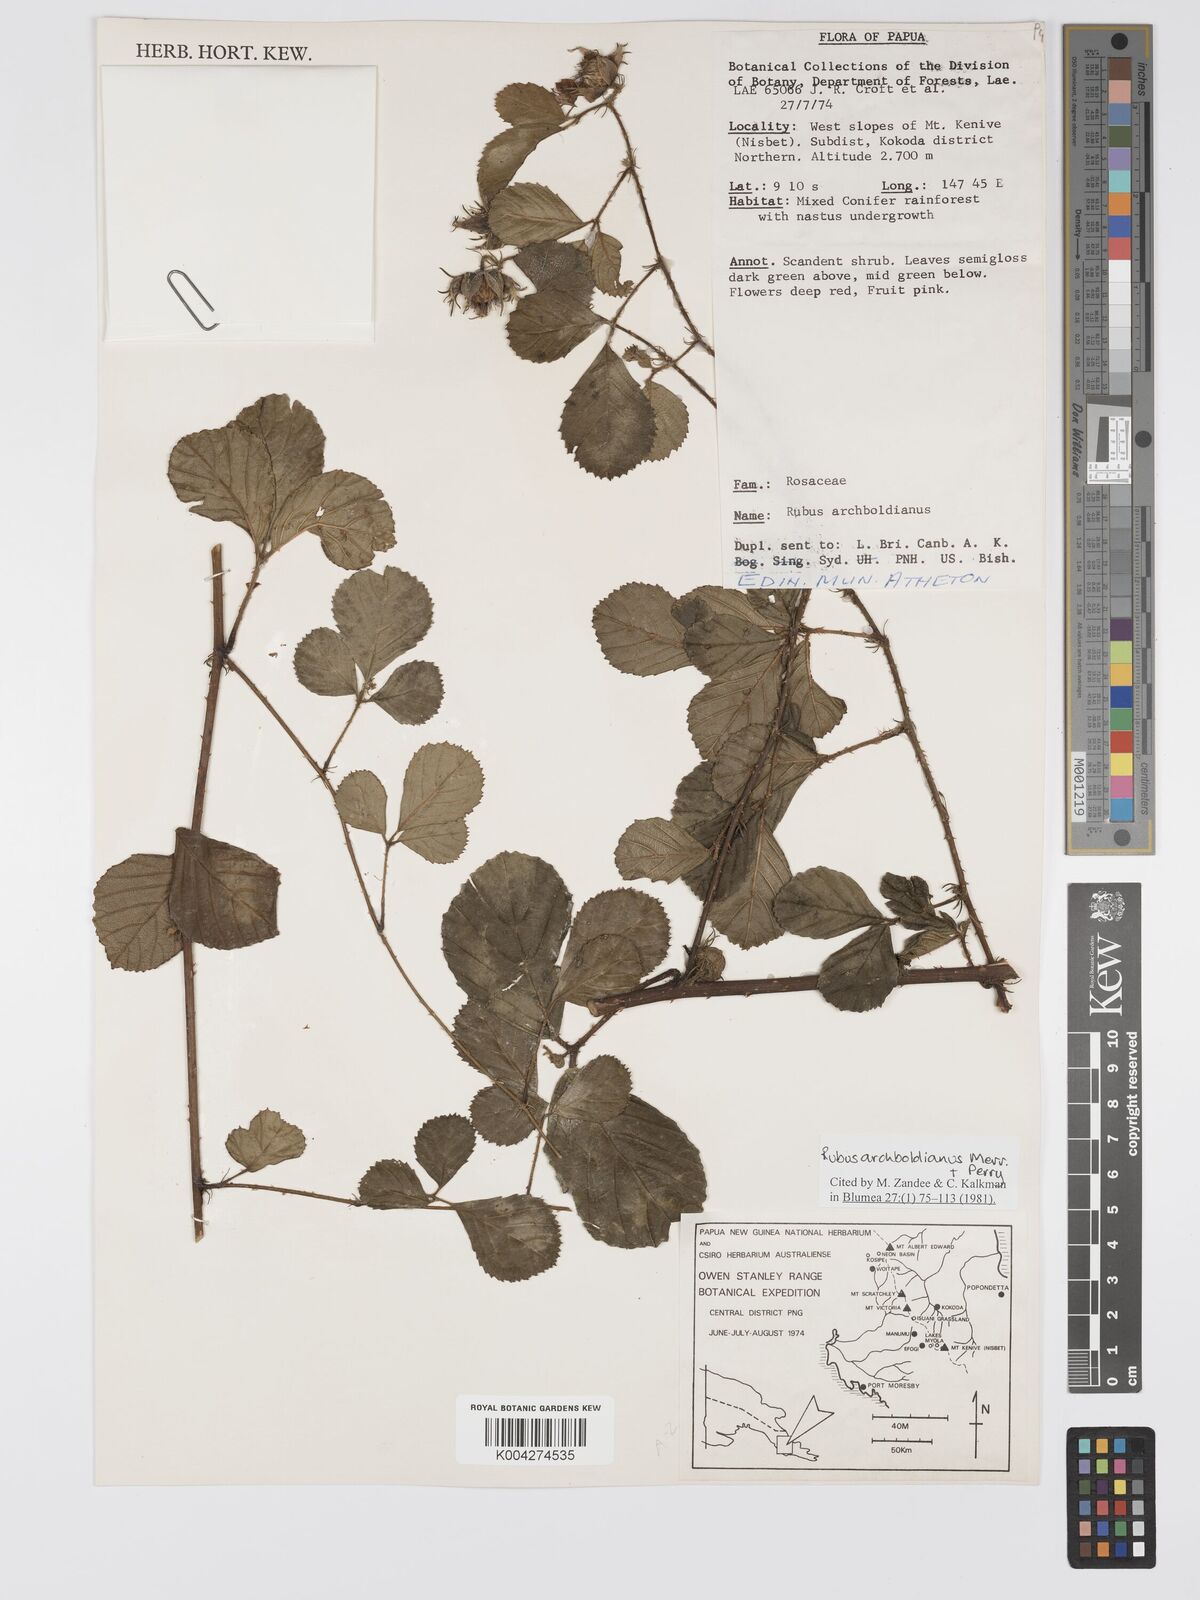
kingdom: Plantae
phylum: Tracheophyta
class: Magnoliopsida
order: Rosales
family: Rosaceae
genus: Rubus
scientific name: Rubus archboldianus
